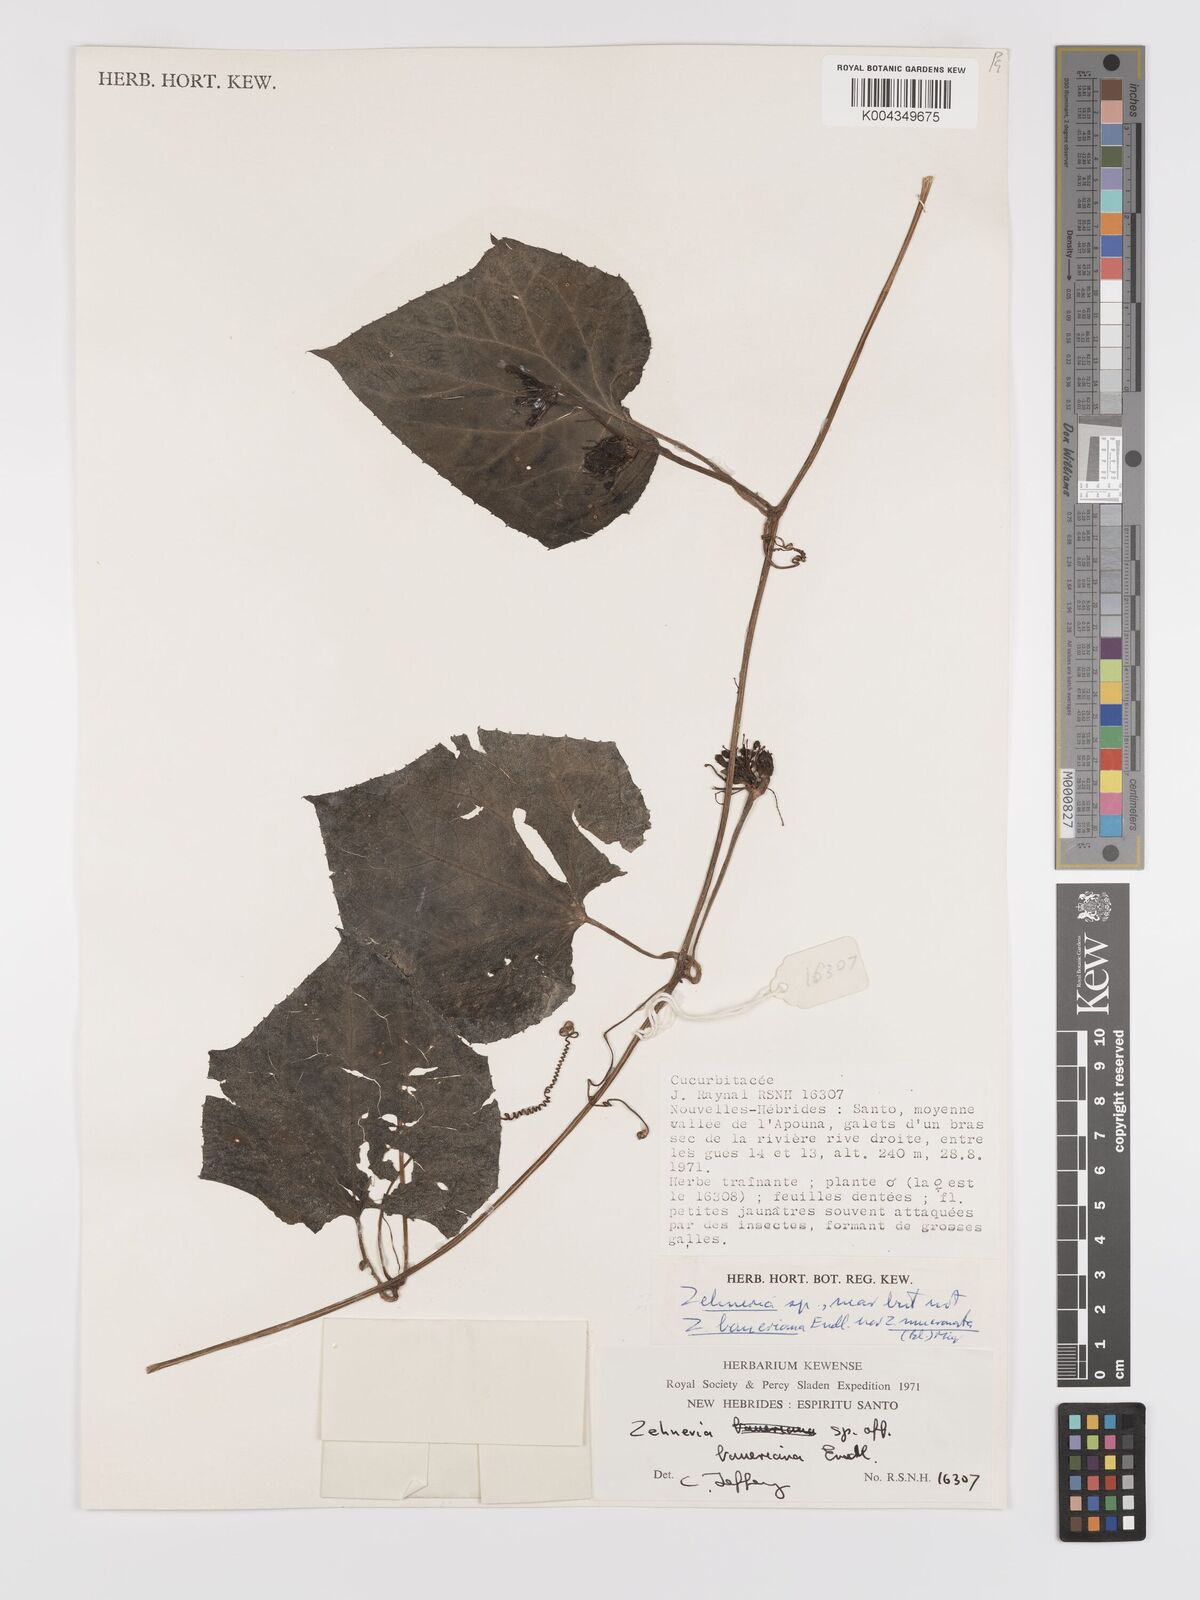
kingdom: Plantae
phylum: Tracheophyta
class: Magnoliopsida
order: Cucurbitales
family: Cucurbitaceae
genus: Zehneria
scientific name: Zehneria mucronata
